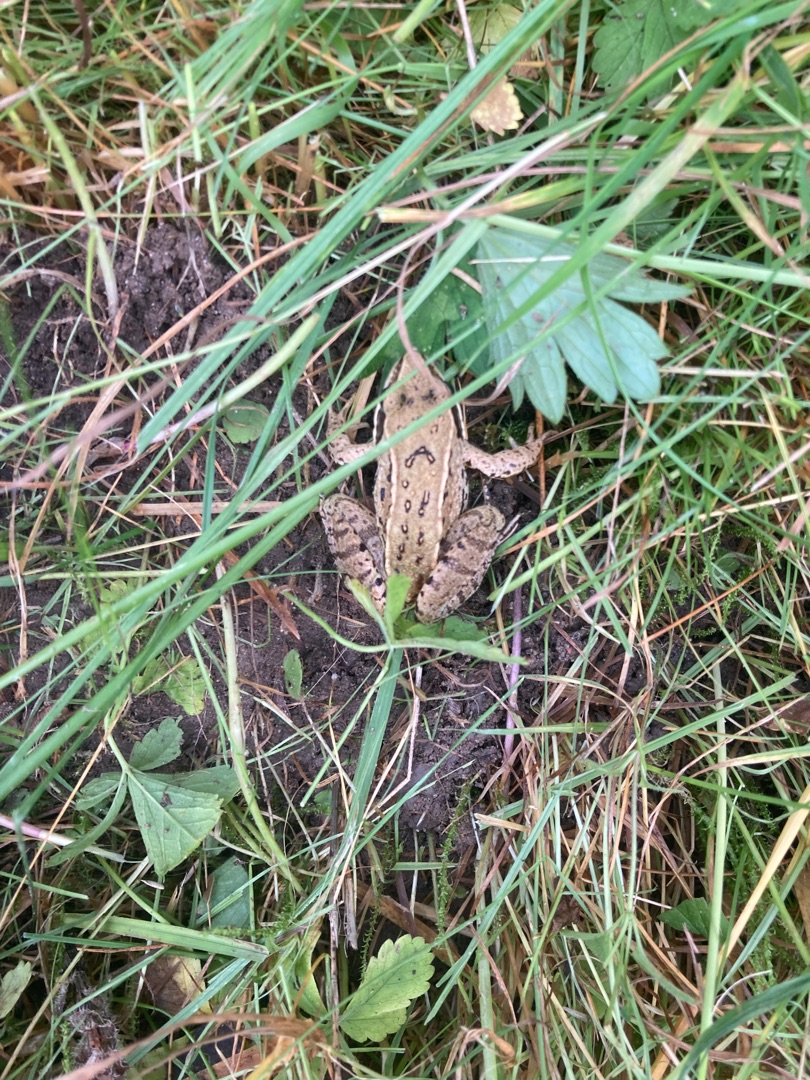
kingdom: Animalia
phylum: Chordata
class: Amphibia
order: Anura
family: Ranidae
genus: Rana
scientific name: Rana arvalis
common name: Spidssnudet frø
